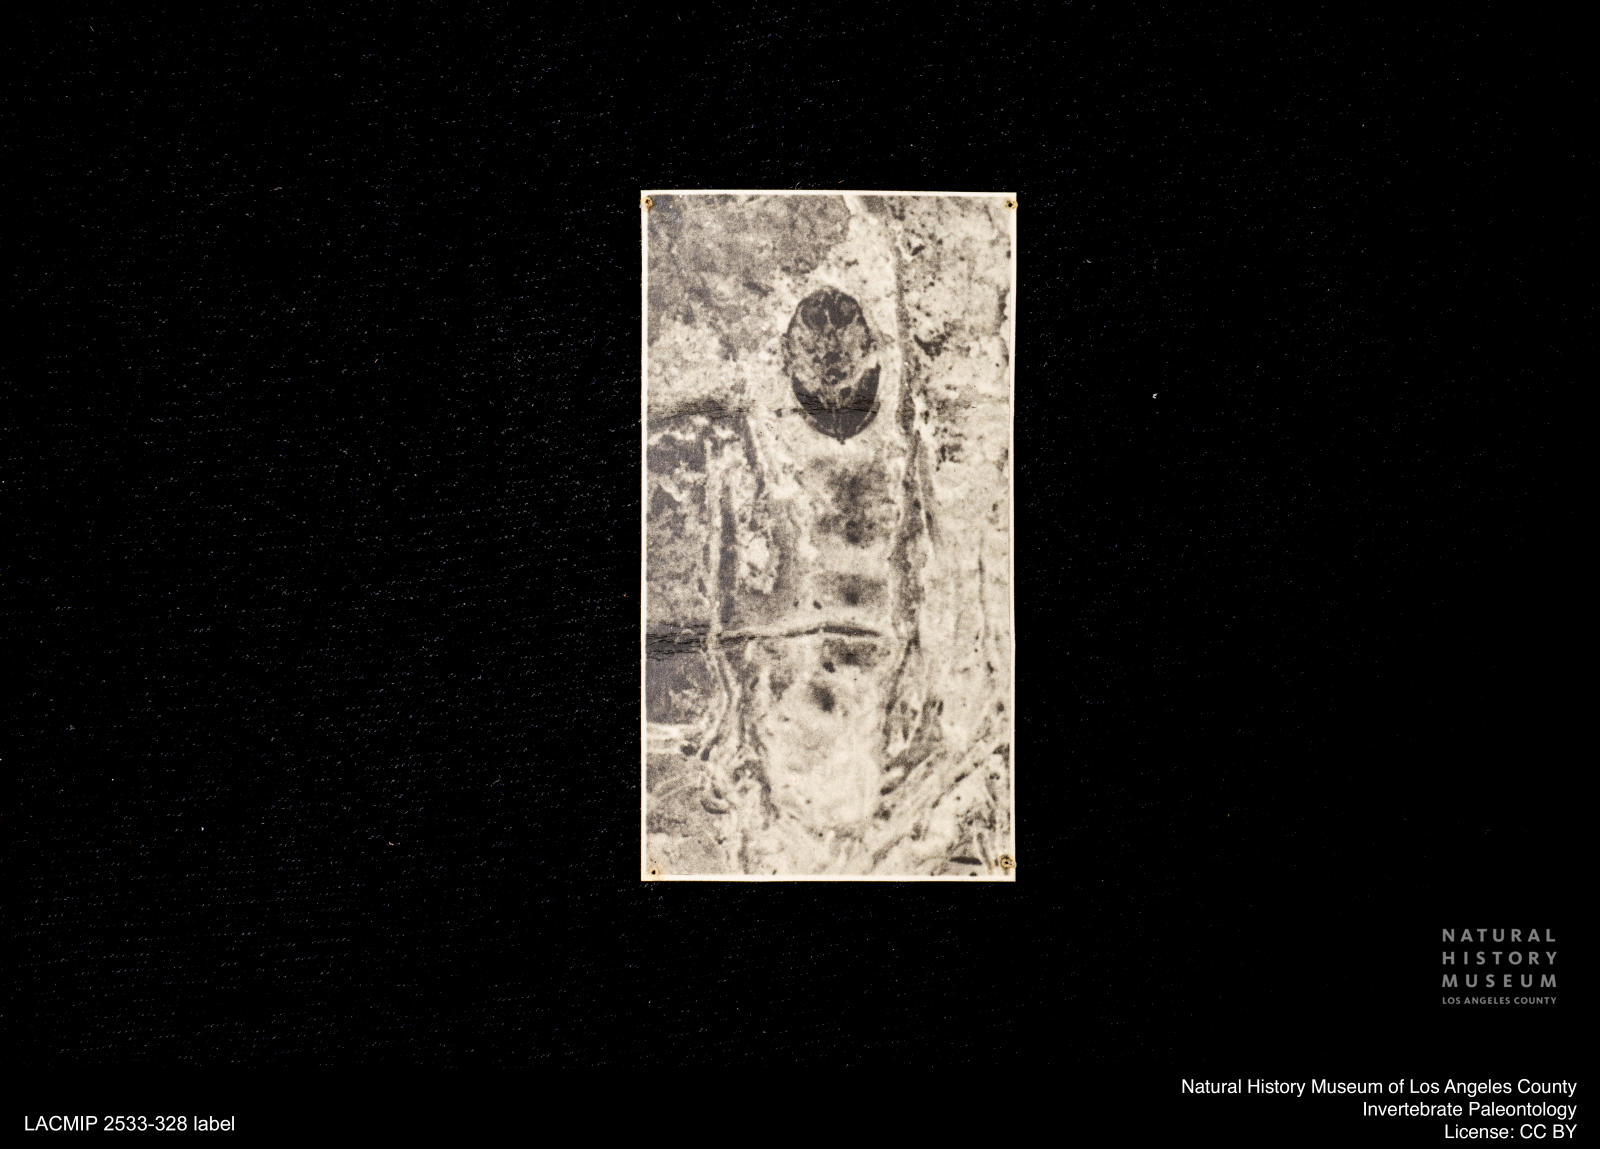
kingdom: Animalia
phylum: Arthropoda
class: Insecta
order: Diptera
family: Ceratopogonidae
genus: Ceratopogon
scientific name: Ceratopogon
